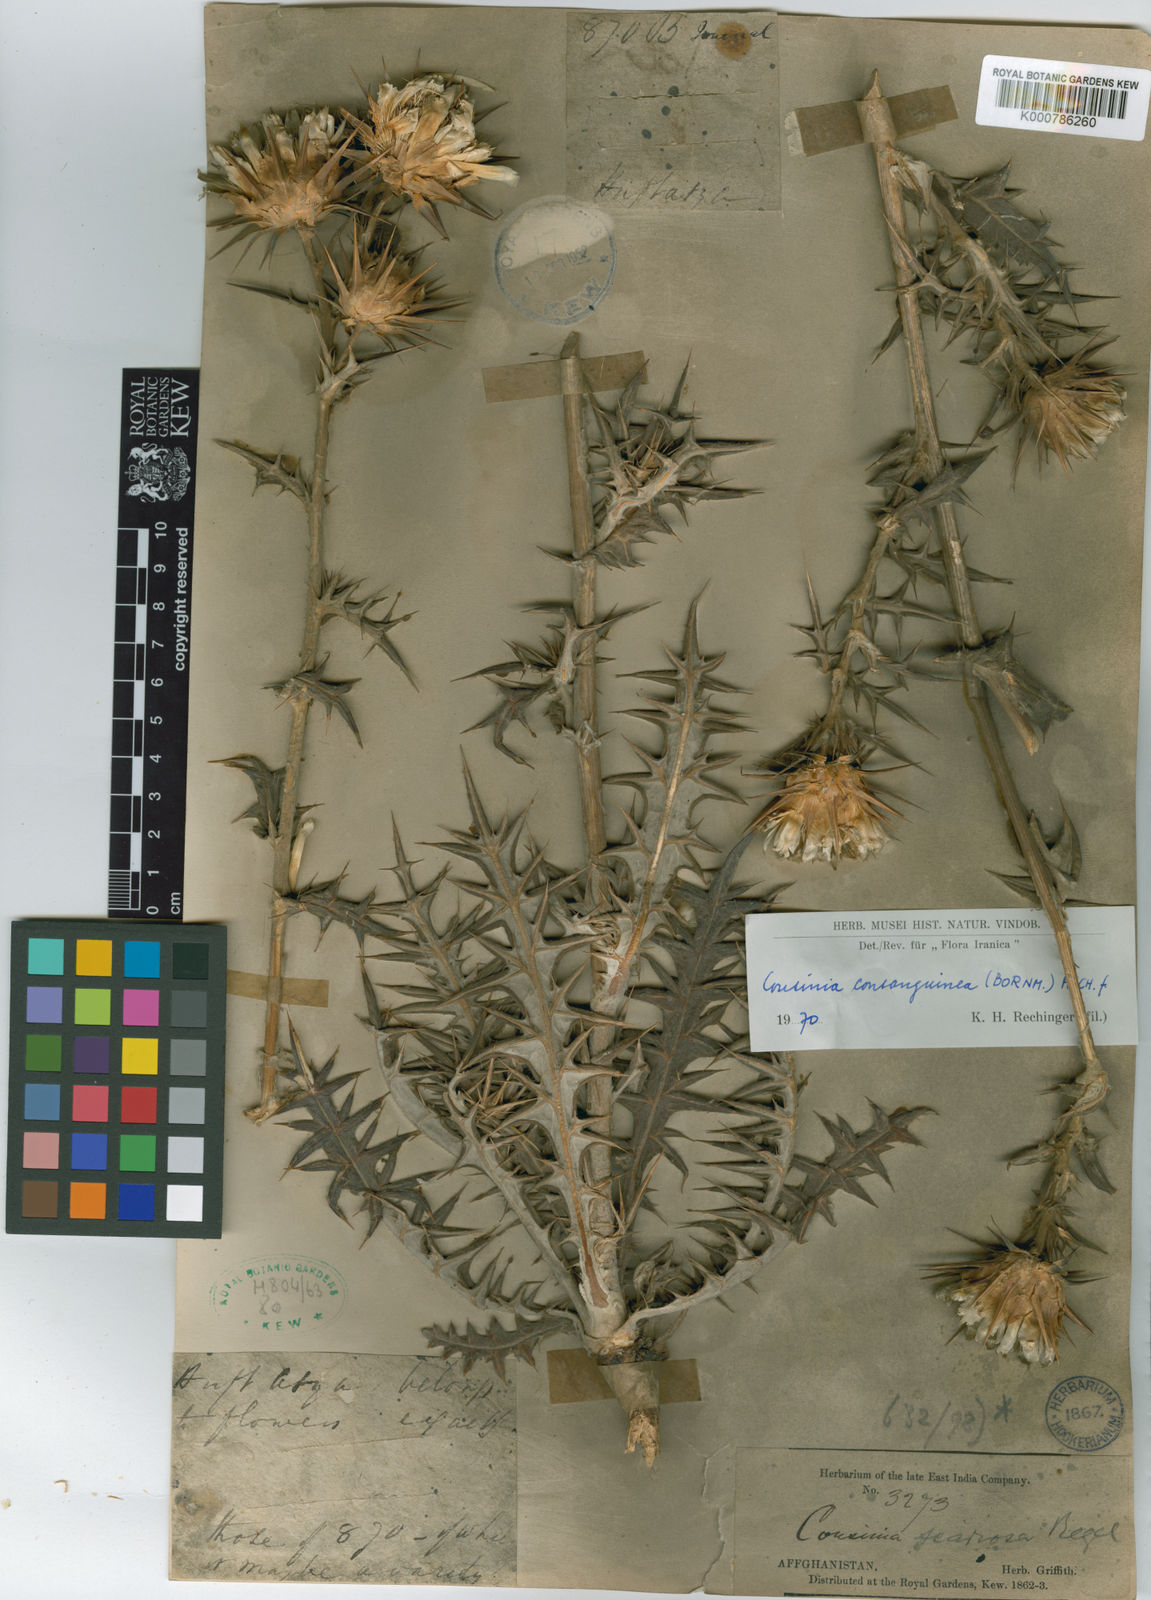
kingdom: Plantae
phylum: Tracheophyta
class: Magnoliopsida
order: Asterales
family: Asteraceae
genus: Cousinia
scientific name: Cousinia consanguinea
